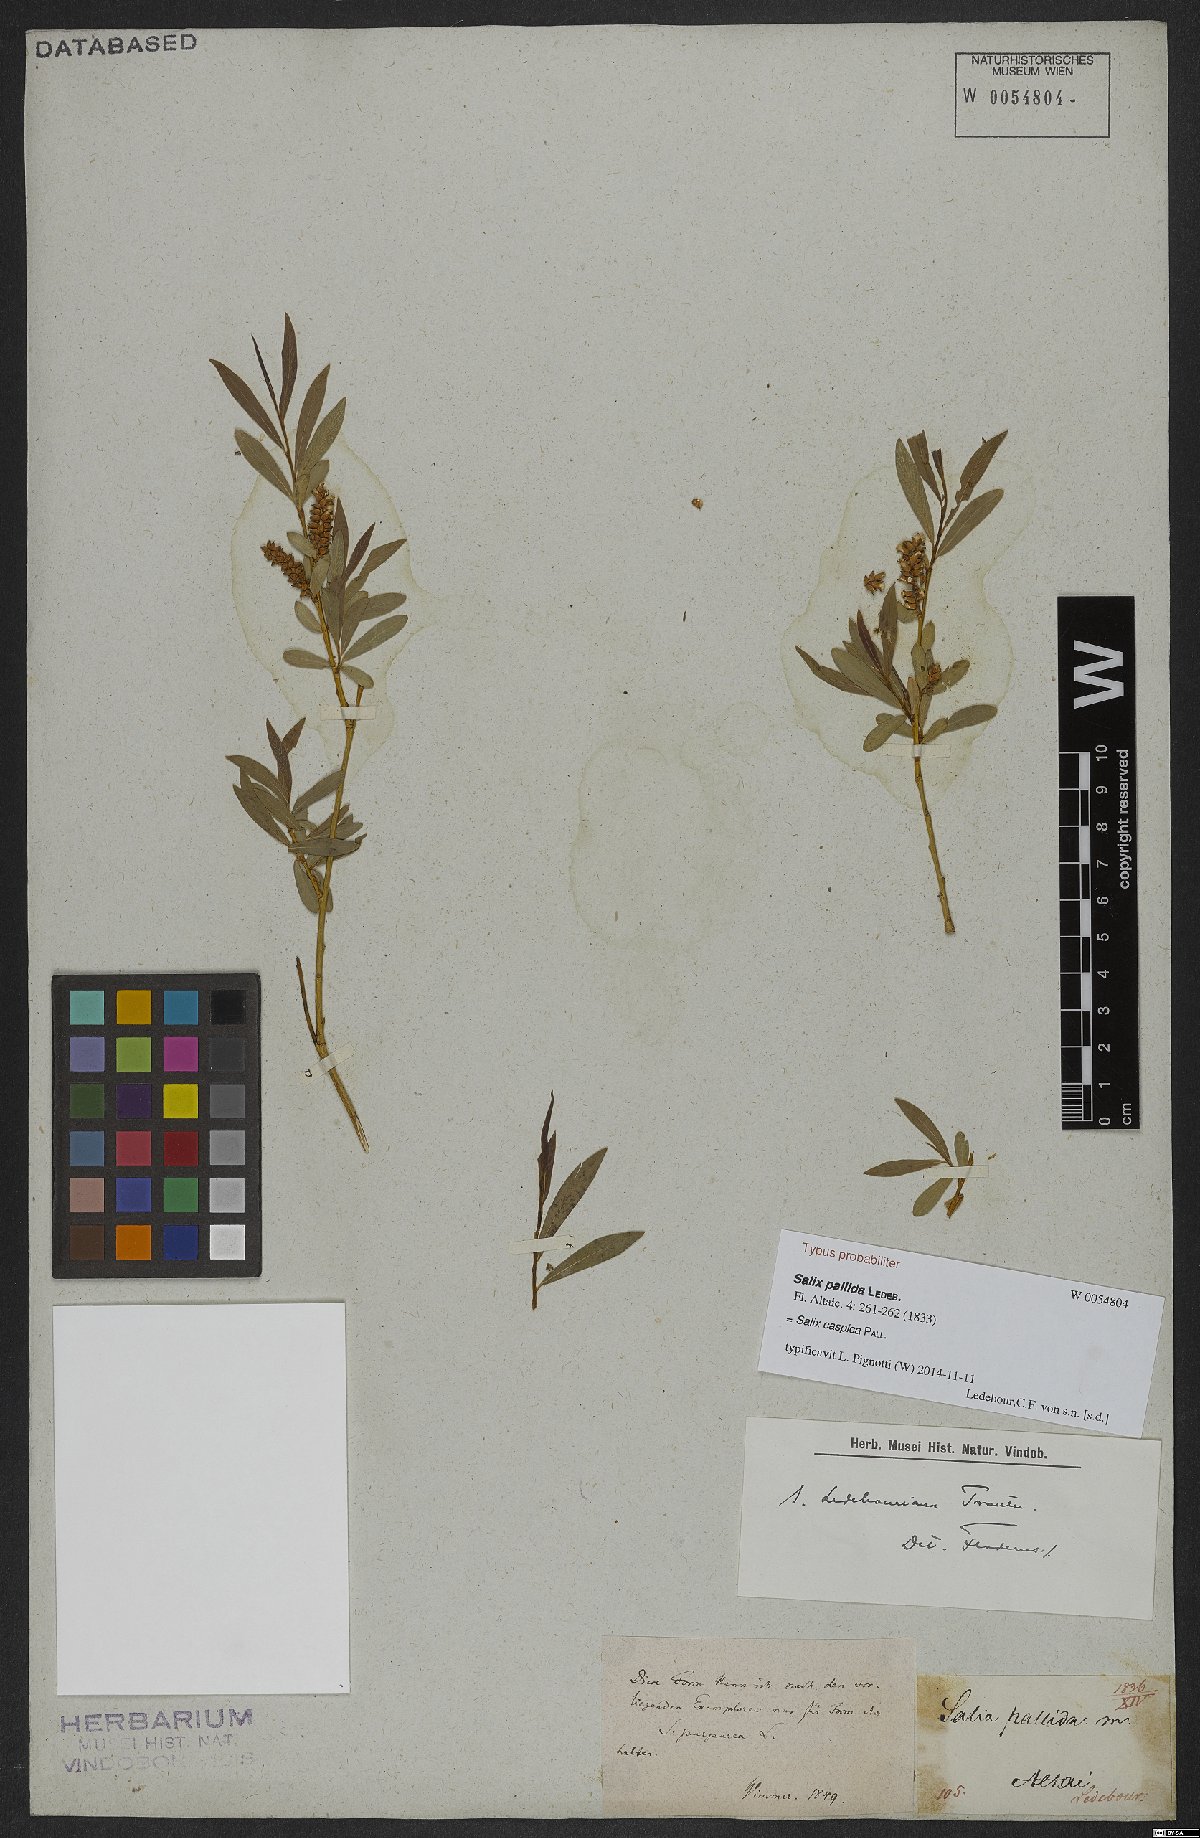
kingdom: Plantae
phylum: Tracheophyta
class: Magnoliopsida
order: Malpighiales
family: Salicaceae
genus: Salix
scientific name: Salix caspica
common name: Caspian willow
